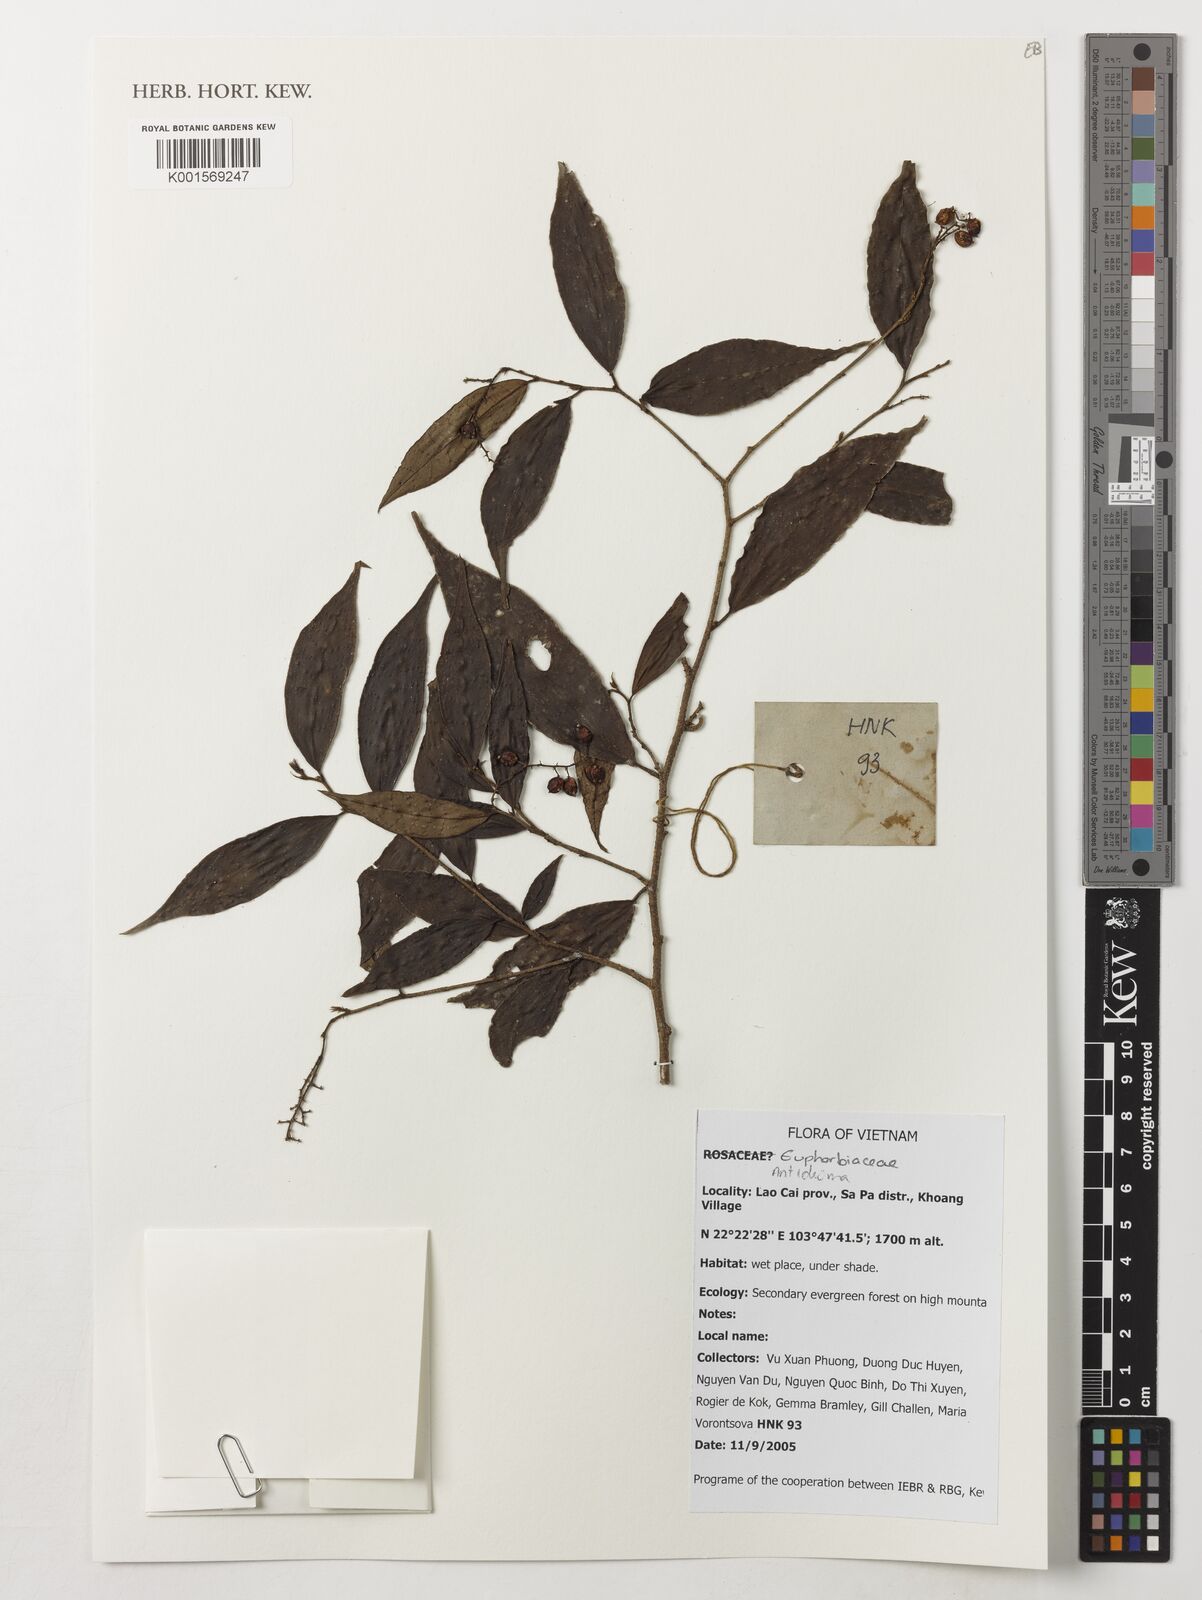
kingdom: Plantae
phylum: Tracheophyta
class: Magnoliopsida
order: Malpighiales
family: Phyllanthaceae
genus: Antidesma
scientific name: Antidesma
